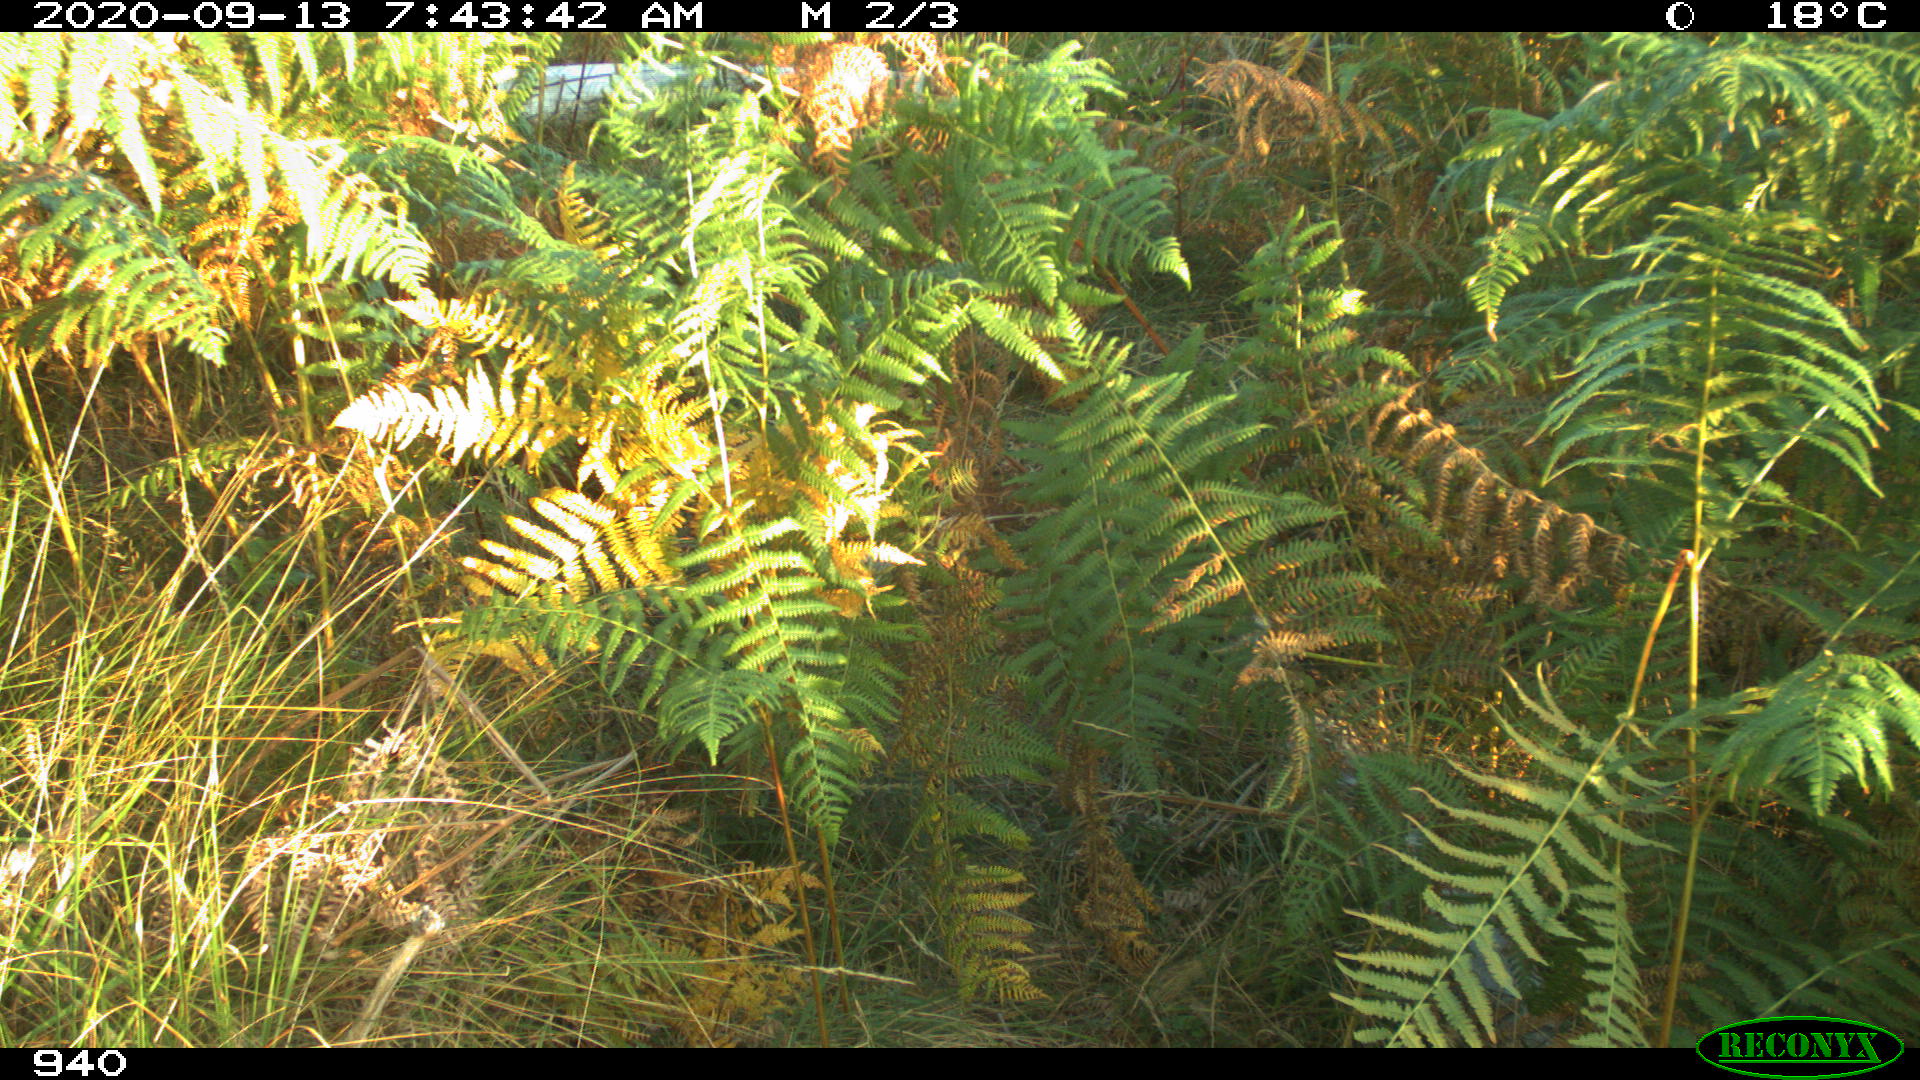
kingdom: Animalia
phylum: Chordata
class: Mammalia
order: Carnivora
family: Canidae
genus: Vulpes
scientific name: Vulpes vulpes
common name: Red fox
